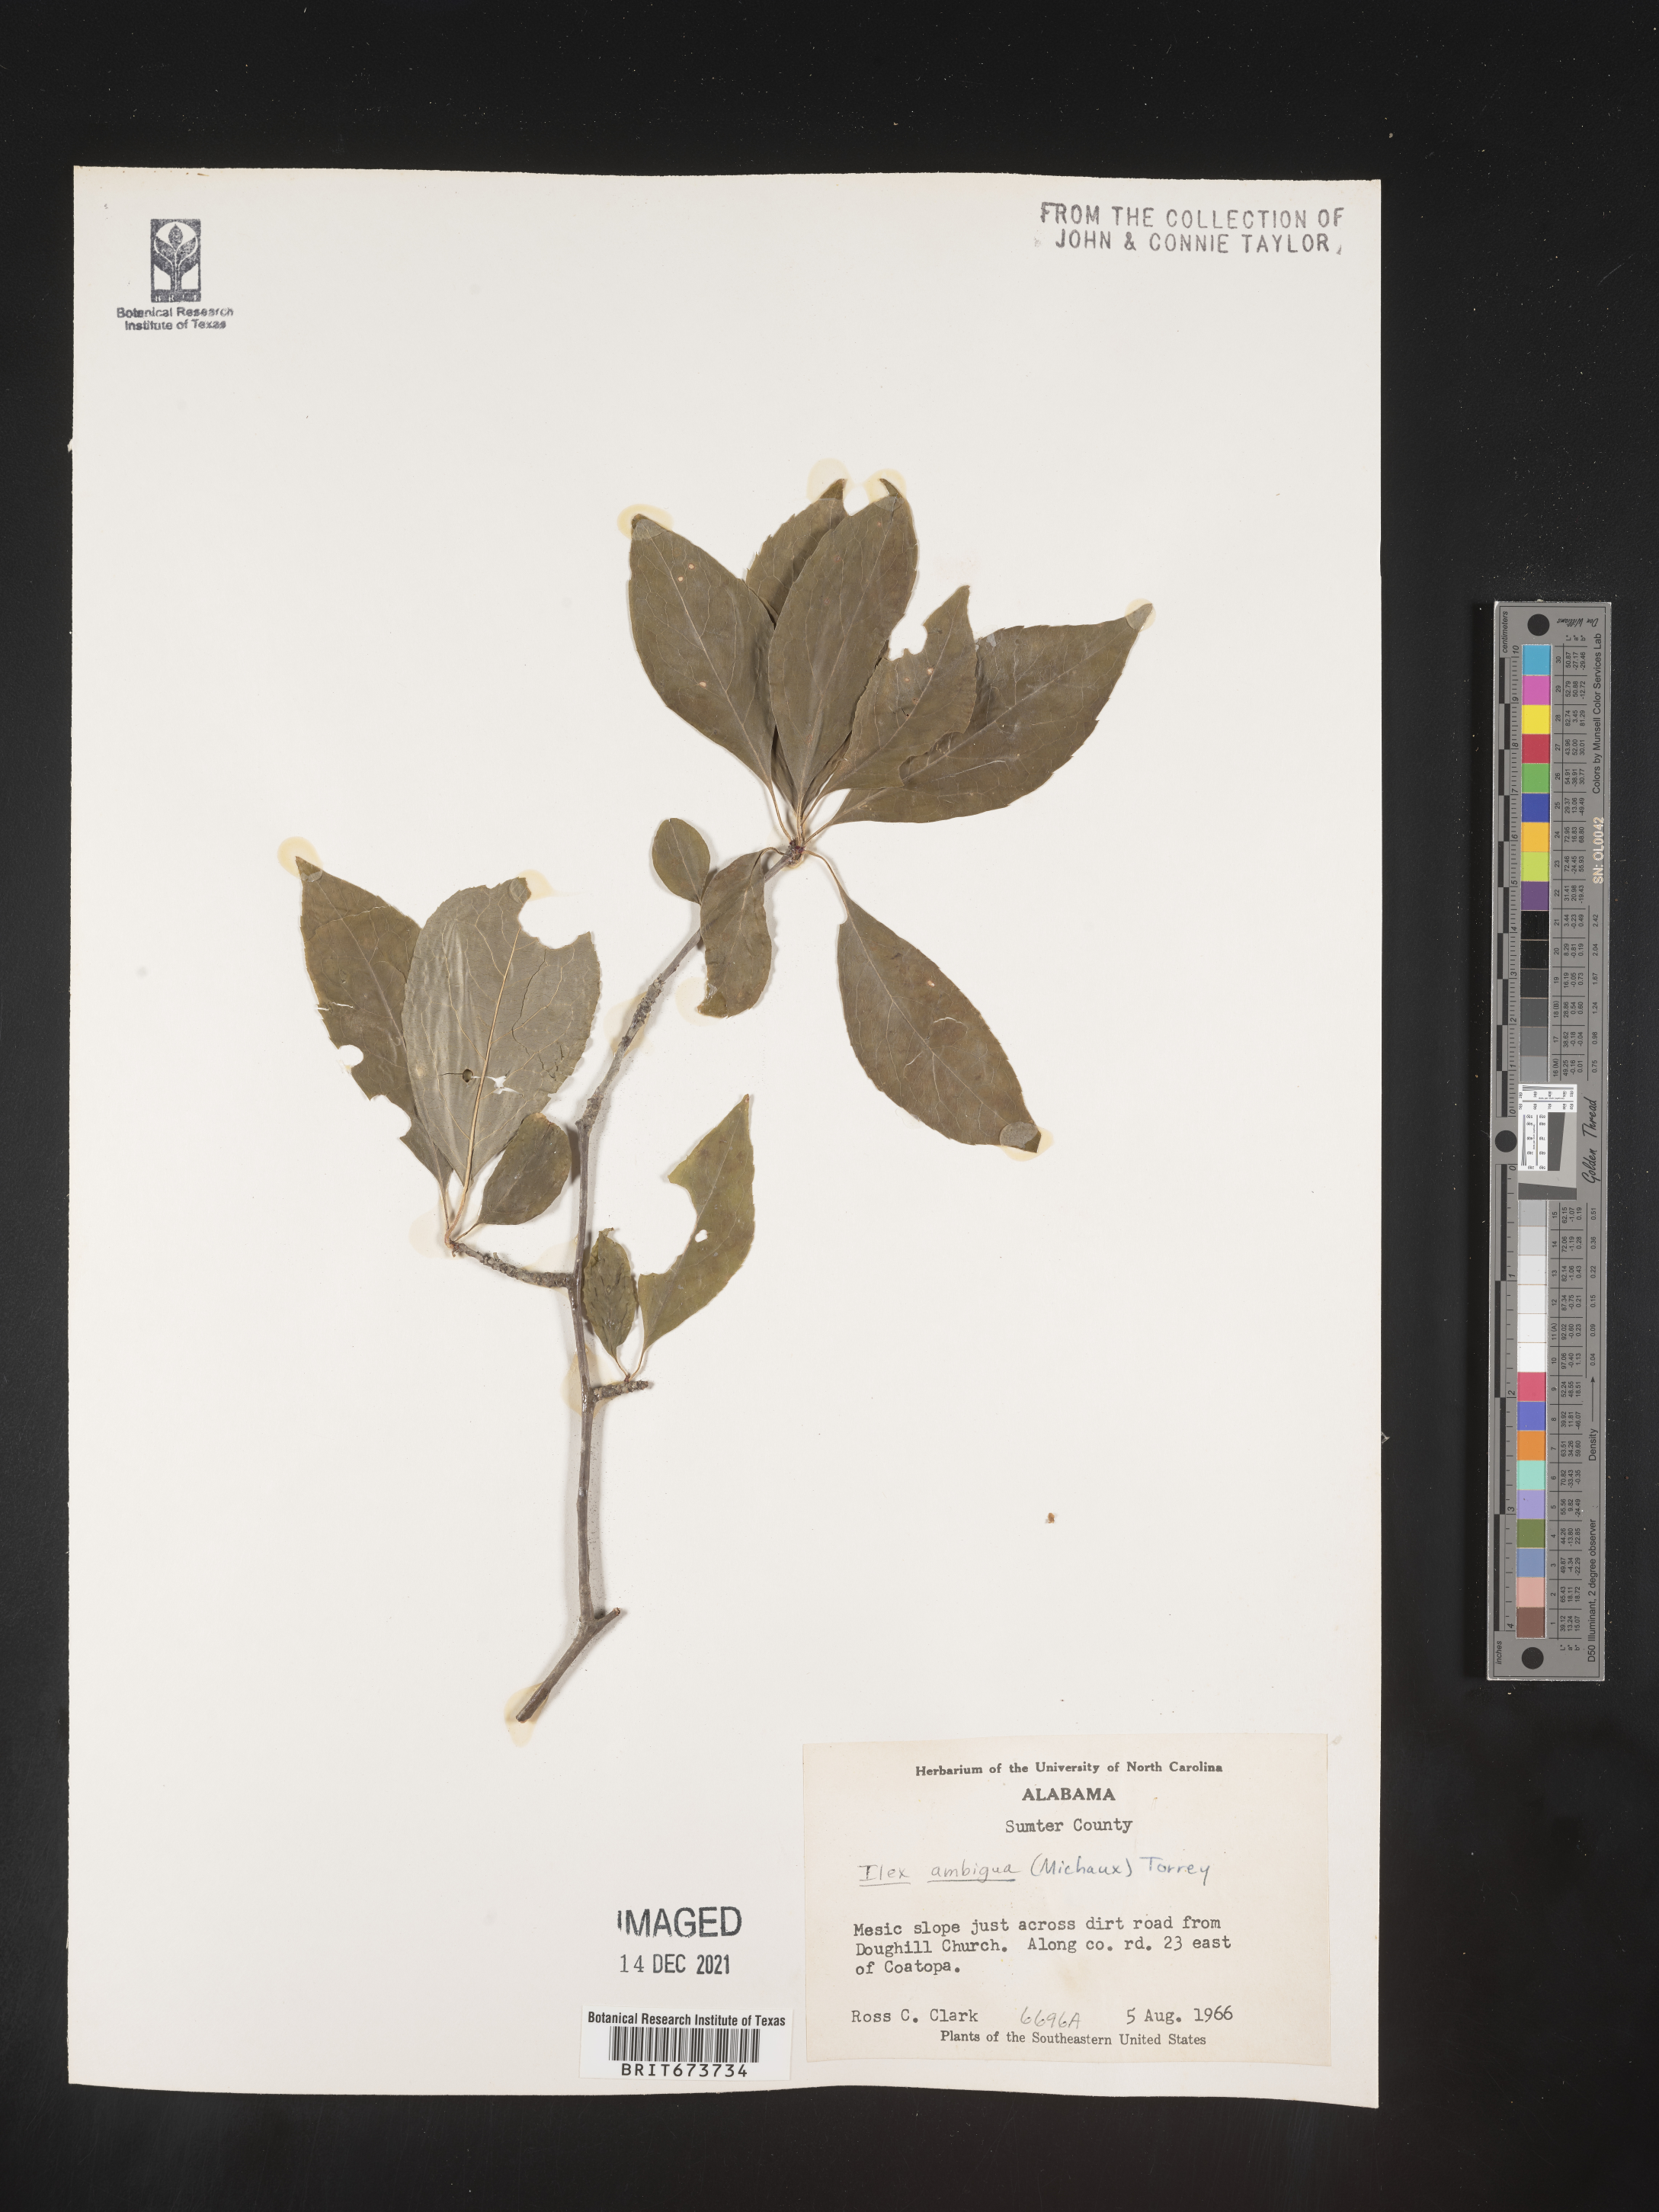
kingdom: Plantae
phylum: Tracheophyta
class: Magnoliopsida
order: Aquifoliales
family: Aquifoliaceae
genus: Ilex
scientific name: Ilex ambigua
